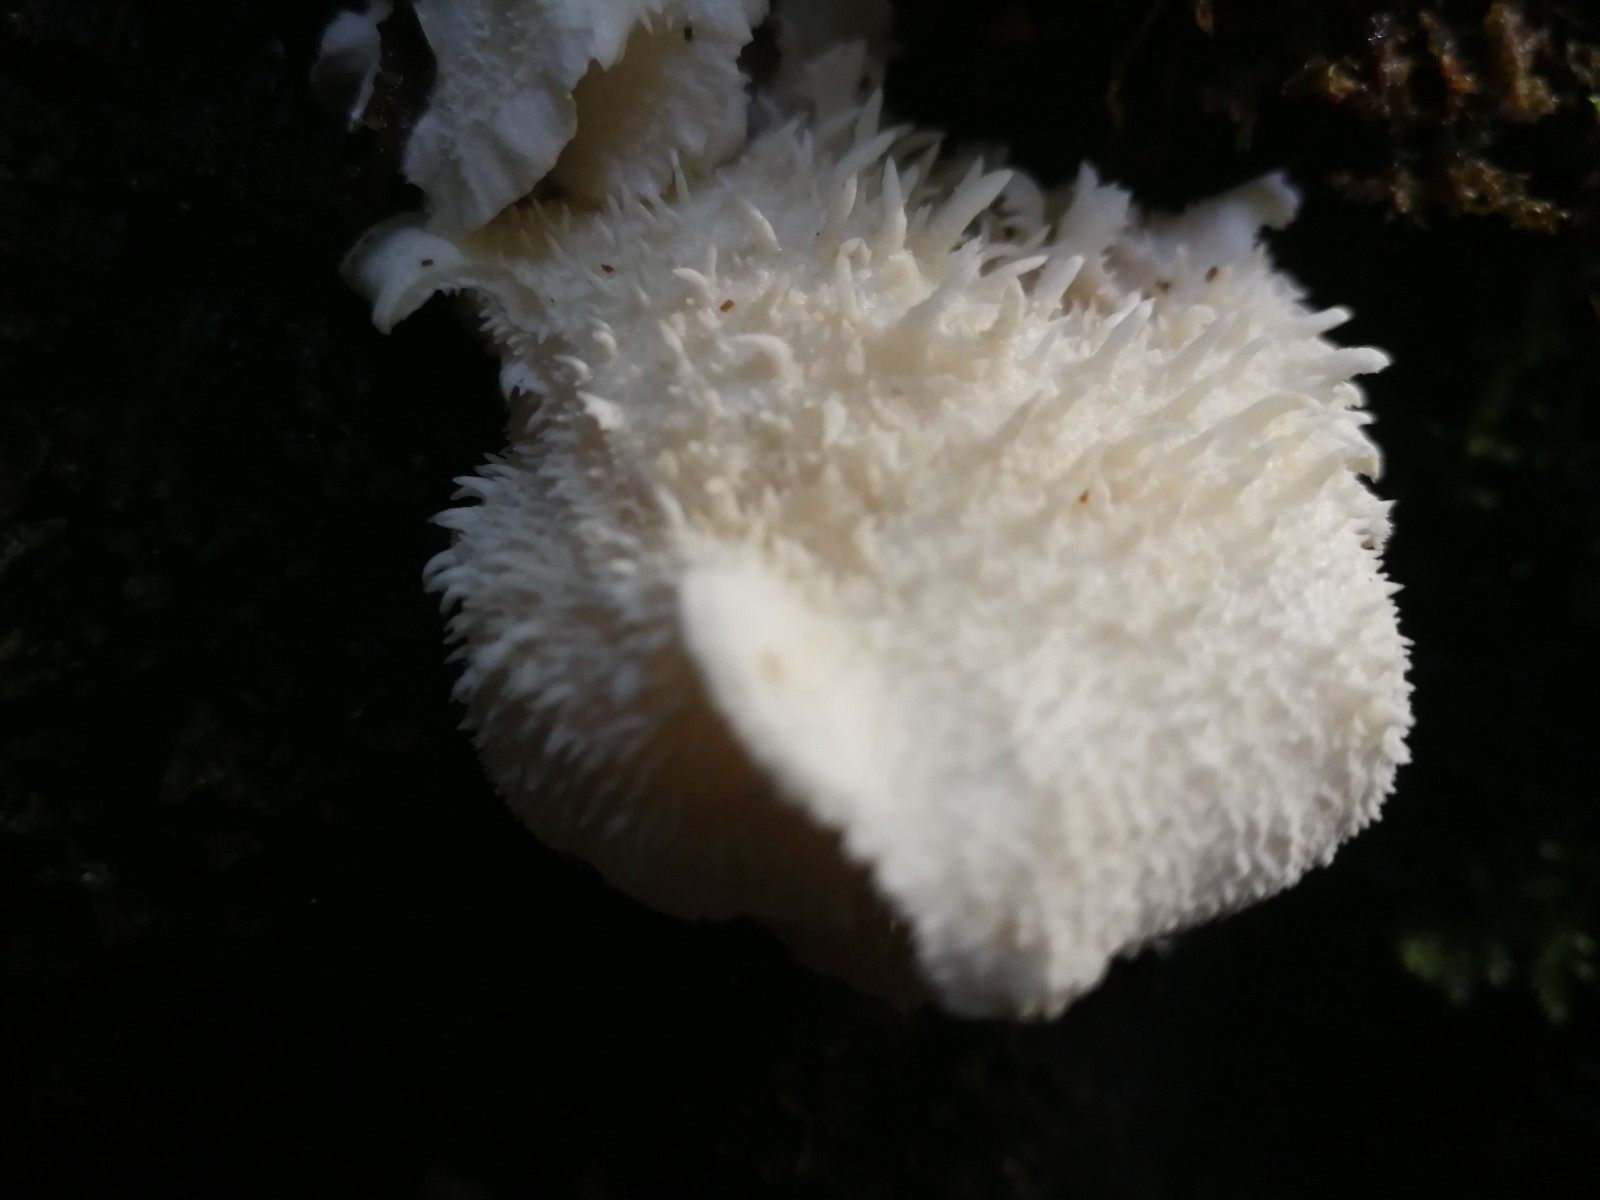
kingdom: Fungi
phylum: Basidiomycota
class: Agaricomycetes
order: Russulales
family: Hericiaceae
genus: Hericium
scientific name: Hericium cirrhatum
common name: børstepigsvamp
